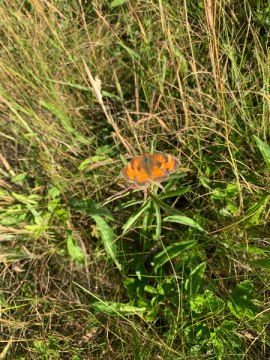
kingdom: Animalia
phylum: Arthropoda
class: Insecta
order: Lepidoptera
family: Nymphalidae
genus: Phyciodes
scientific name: Phyciodes tharos
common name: Northern Crescent
